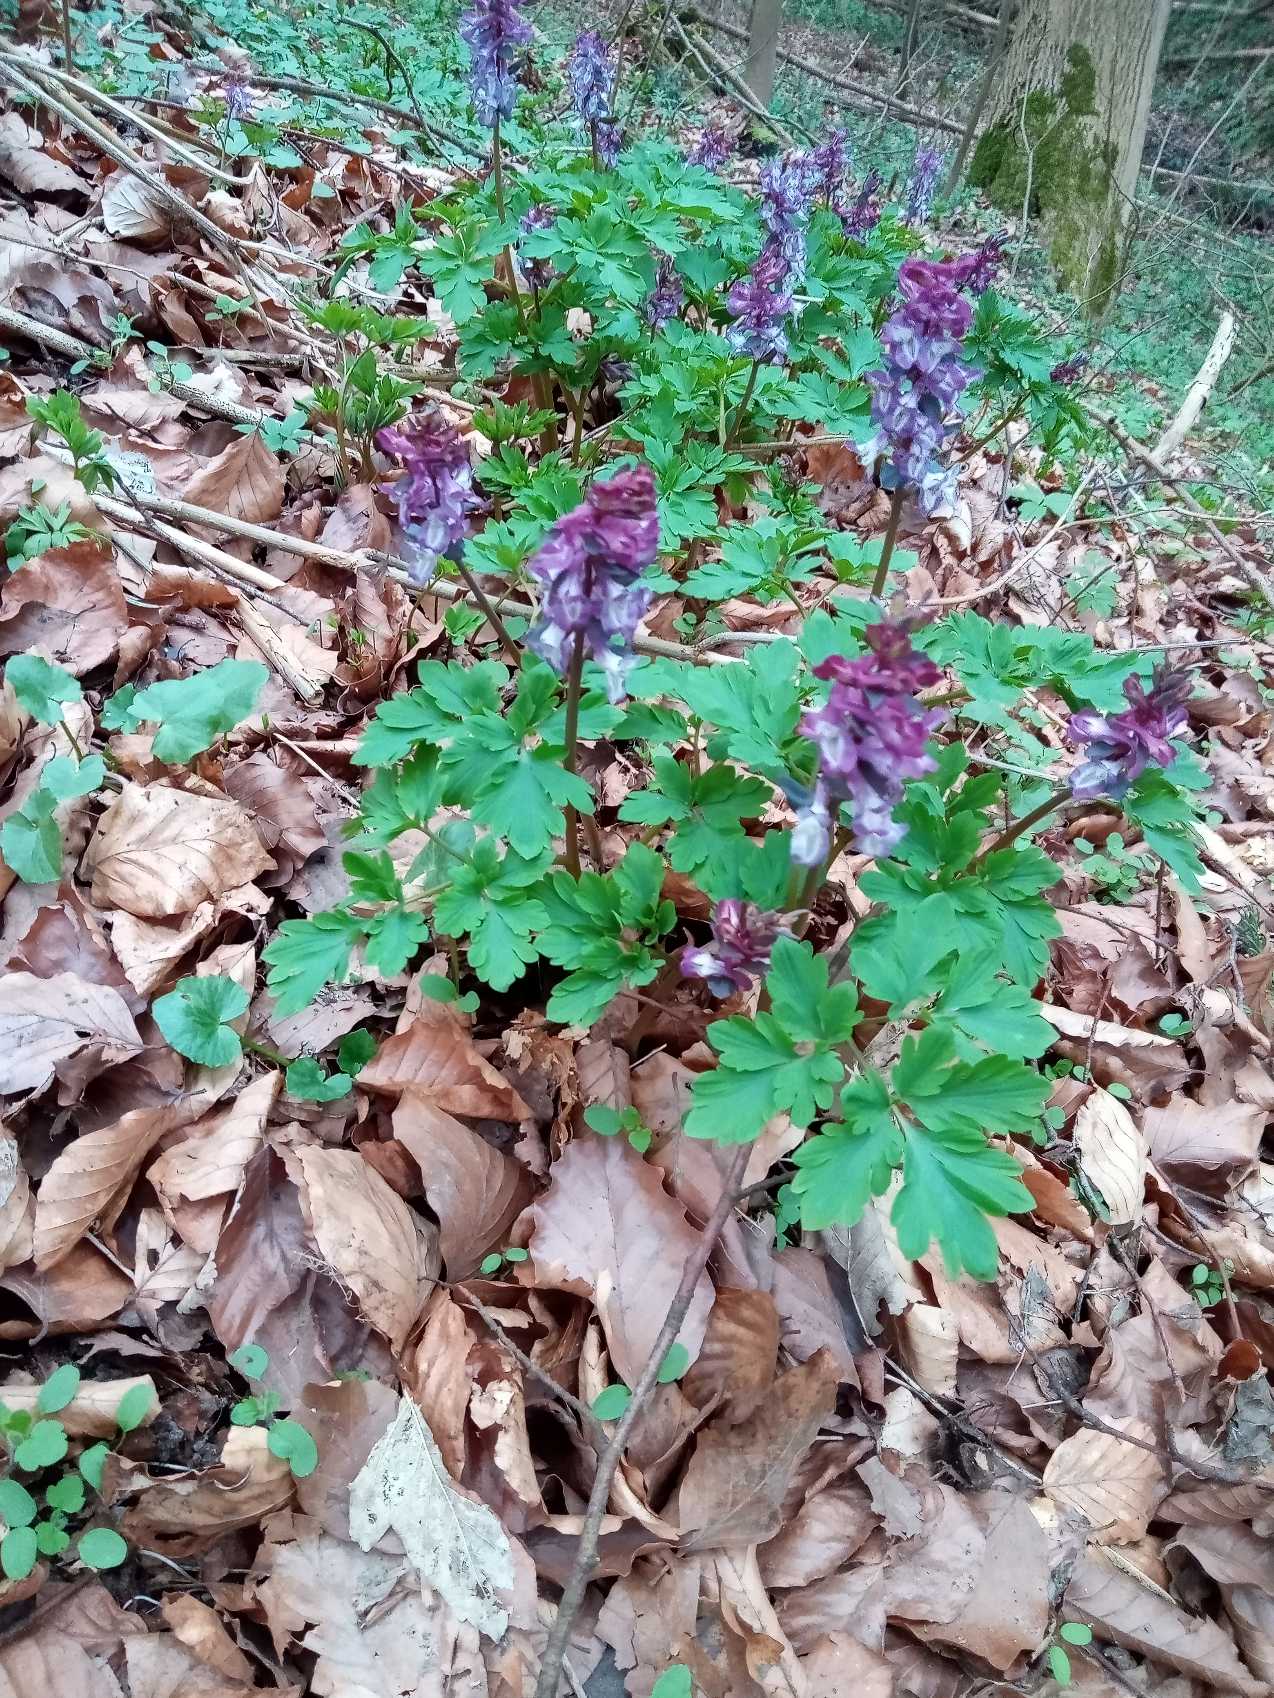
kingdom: Plantae
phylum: Tracheophyta
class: Magnoliopsida
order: Ranunculales
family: Papaveraceae
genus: Corydalis
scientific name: Corydalis cava
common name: Hulrodet lærkespore
